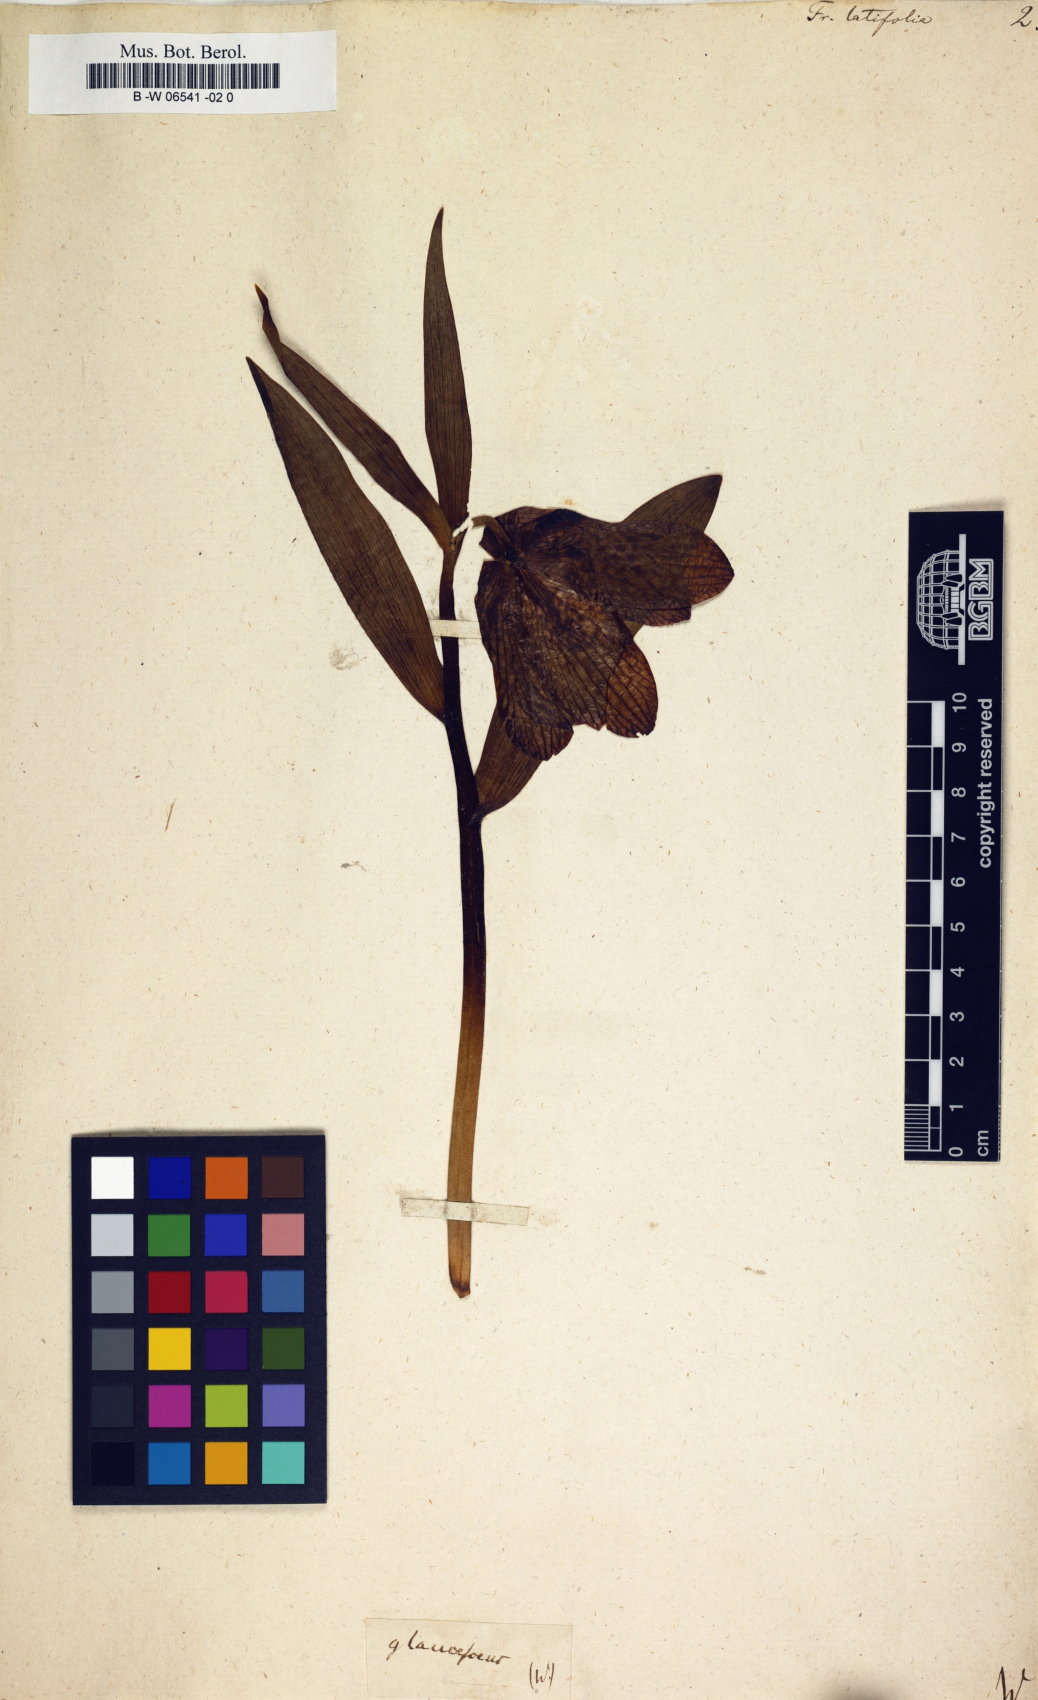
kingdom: Plantae
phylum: Tracheophyta
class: Liliopsida
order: Liliales
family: Liliaceae
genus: Fritillaria
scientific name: Fritillaria latifolia
